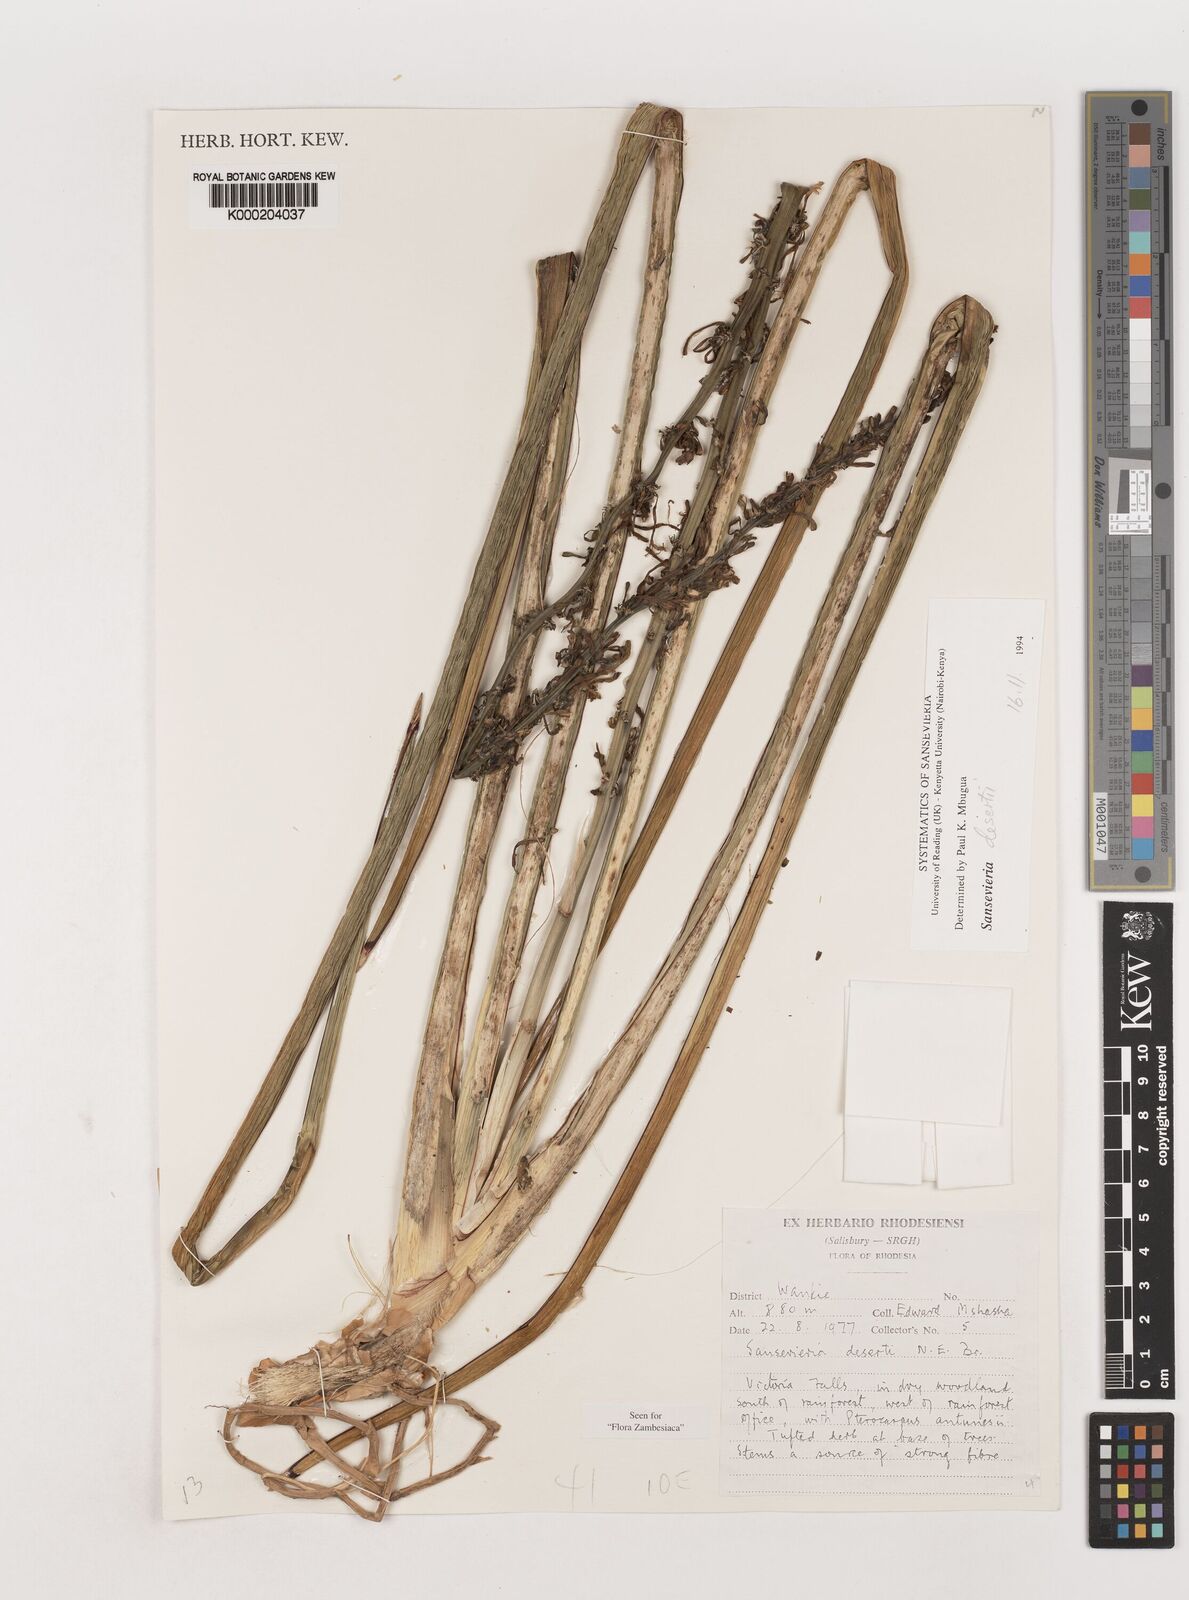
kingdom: Plantae
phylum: Tracheophyta
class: Liliopsida
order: Asparagales
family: Asparagaceae
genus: Dracaena
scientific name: Dracaena pearsonii
